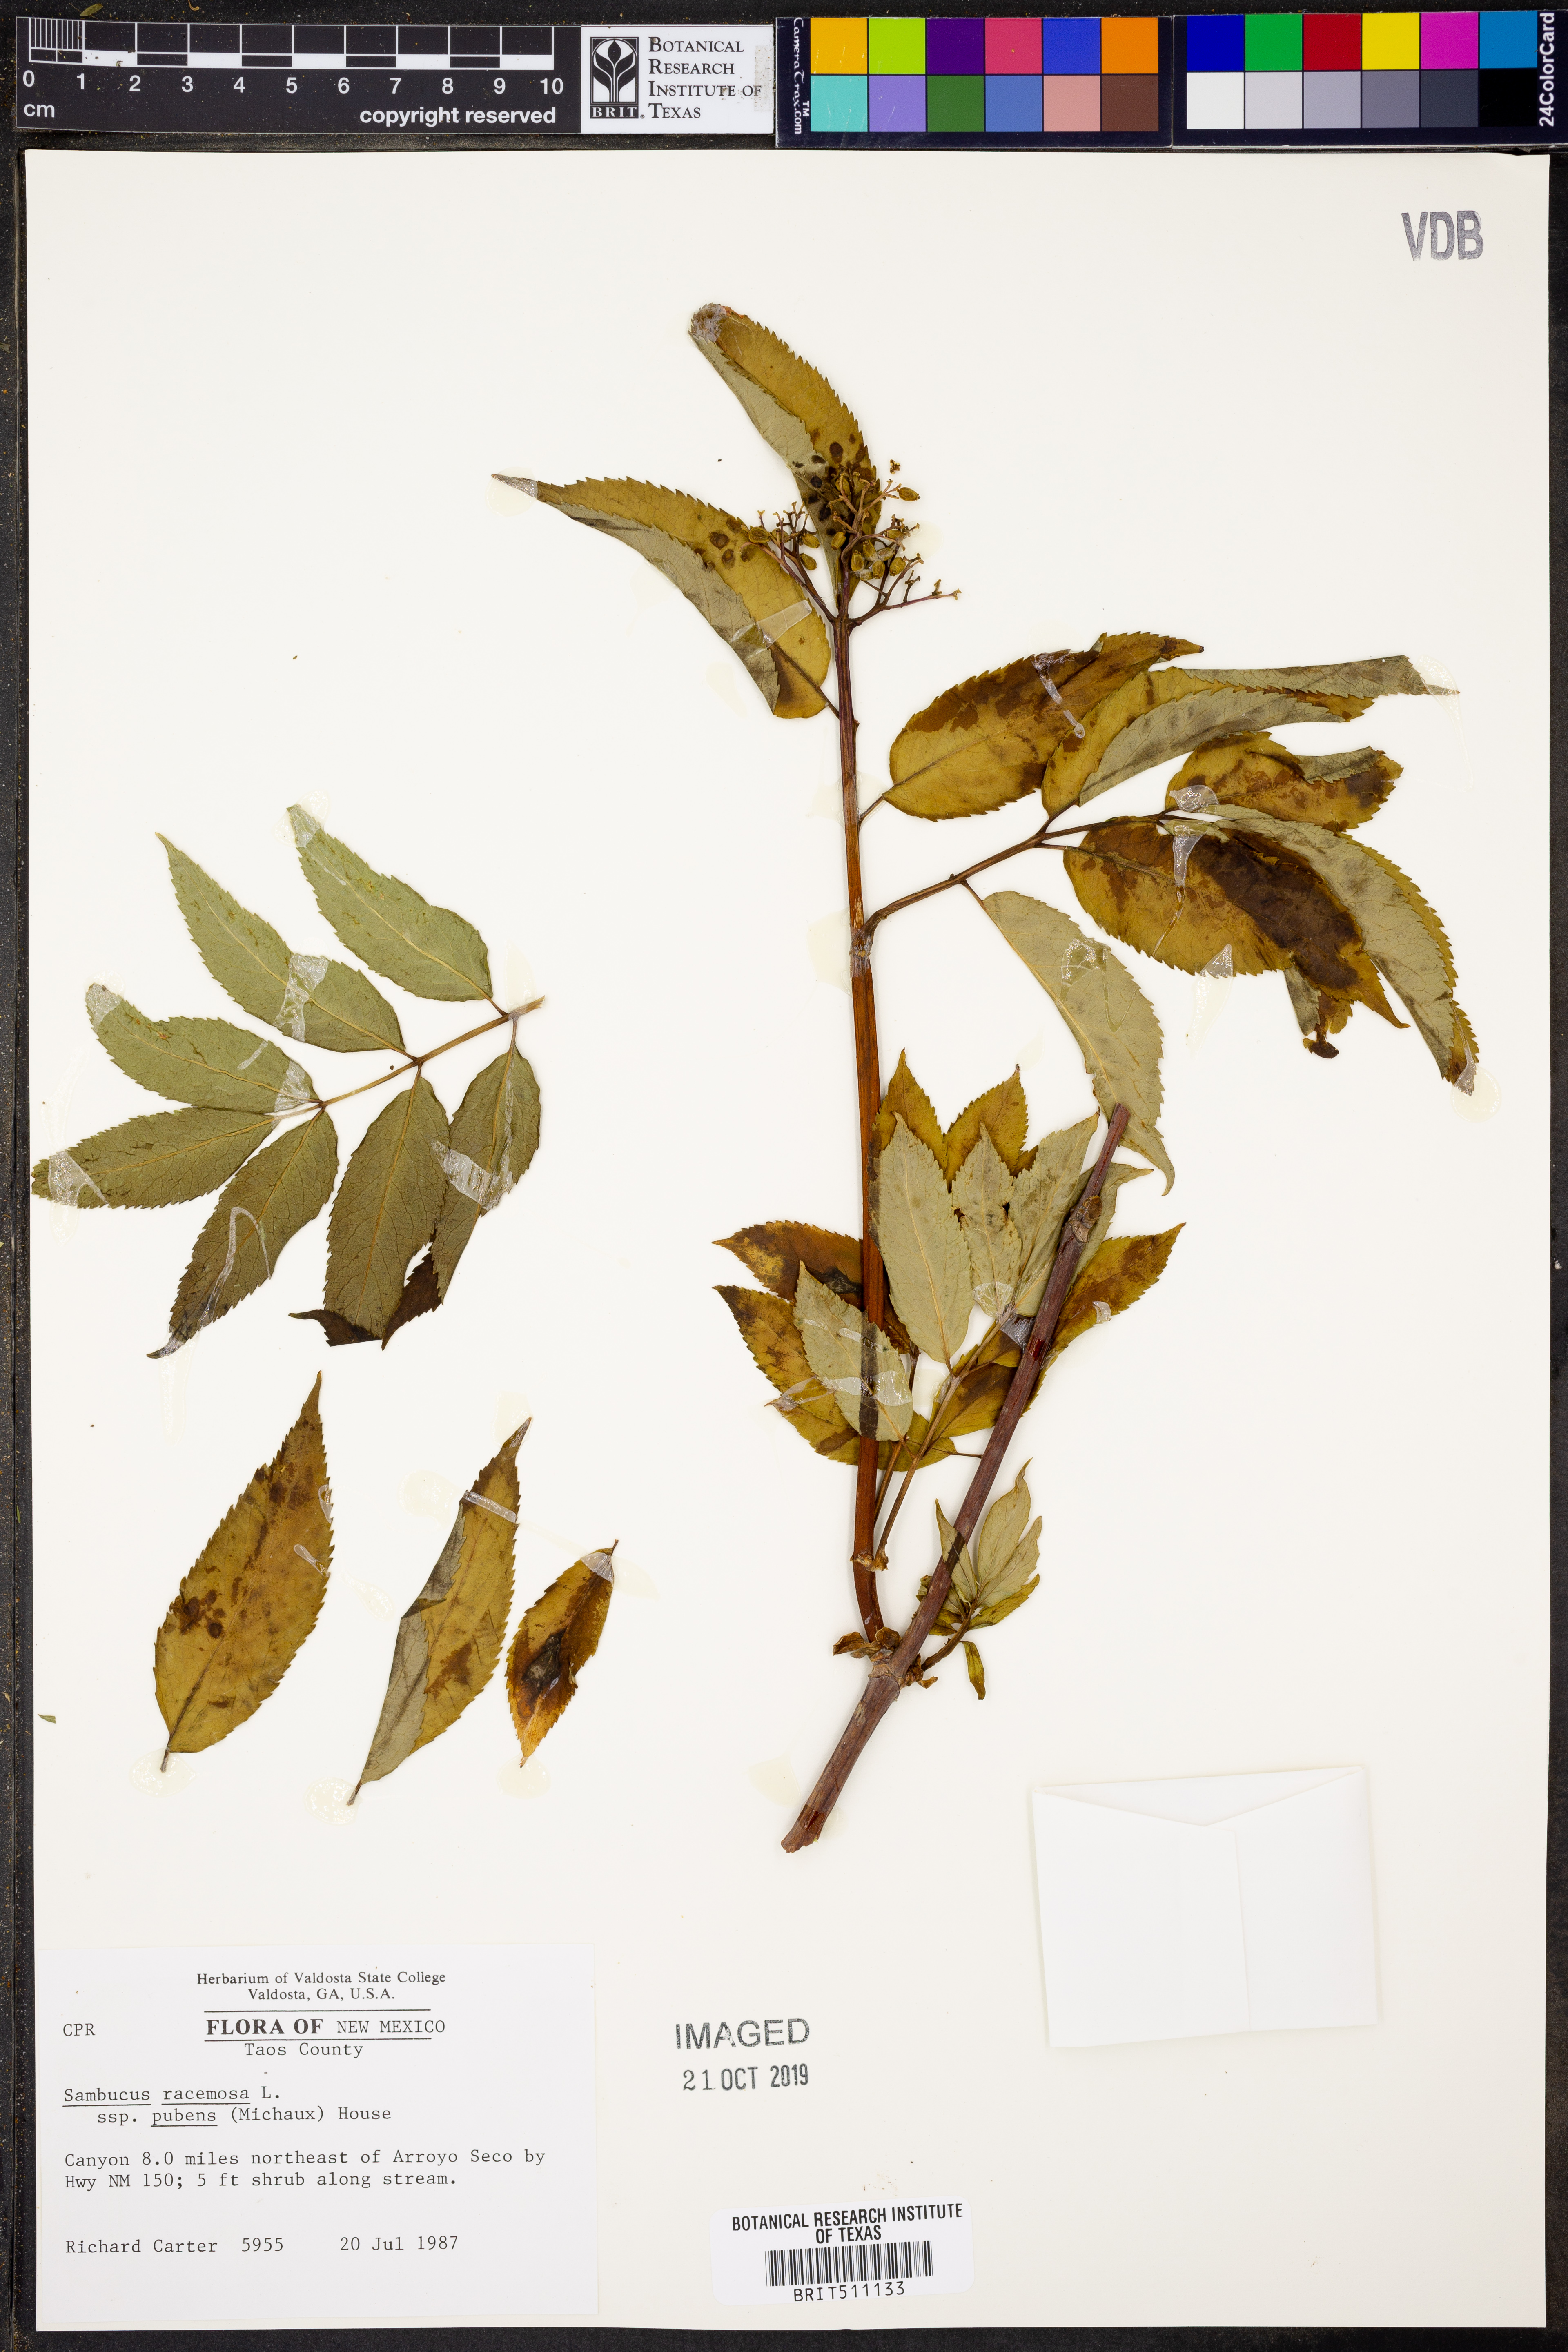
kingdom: Plantae
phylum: Tracheophyta
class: Magnoliopsida
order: Dipsacales
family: Viburnaceae
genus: Sambucus
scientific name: Sambucus racemosa
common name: Red-berried elder
